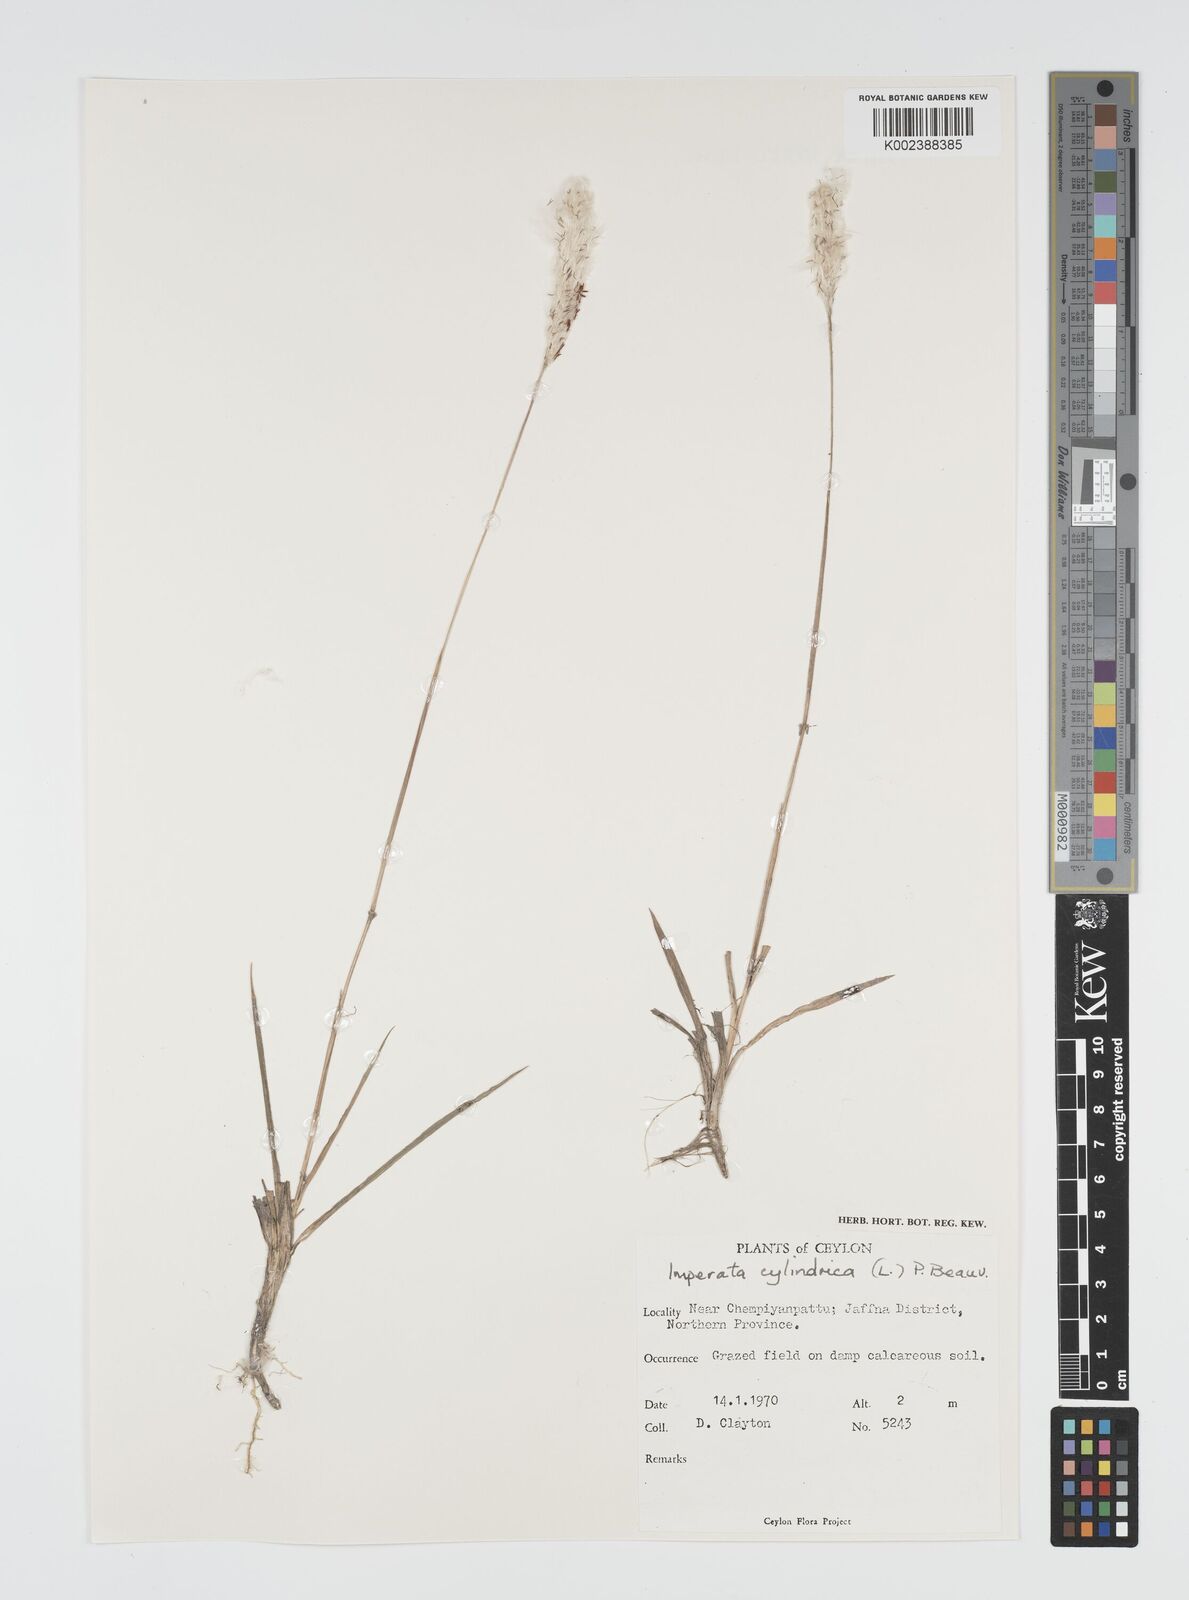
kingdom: Plantae
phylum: Tracheophyta
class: Liliopsida
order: Poales
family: Poaceae
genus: Imperata
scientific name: Imperata cylindrica
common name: Cogongrass
